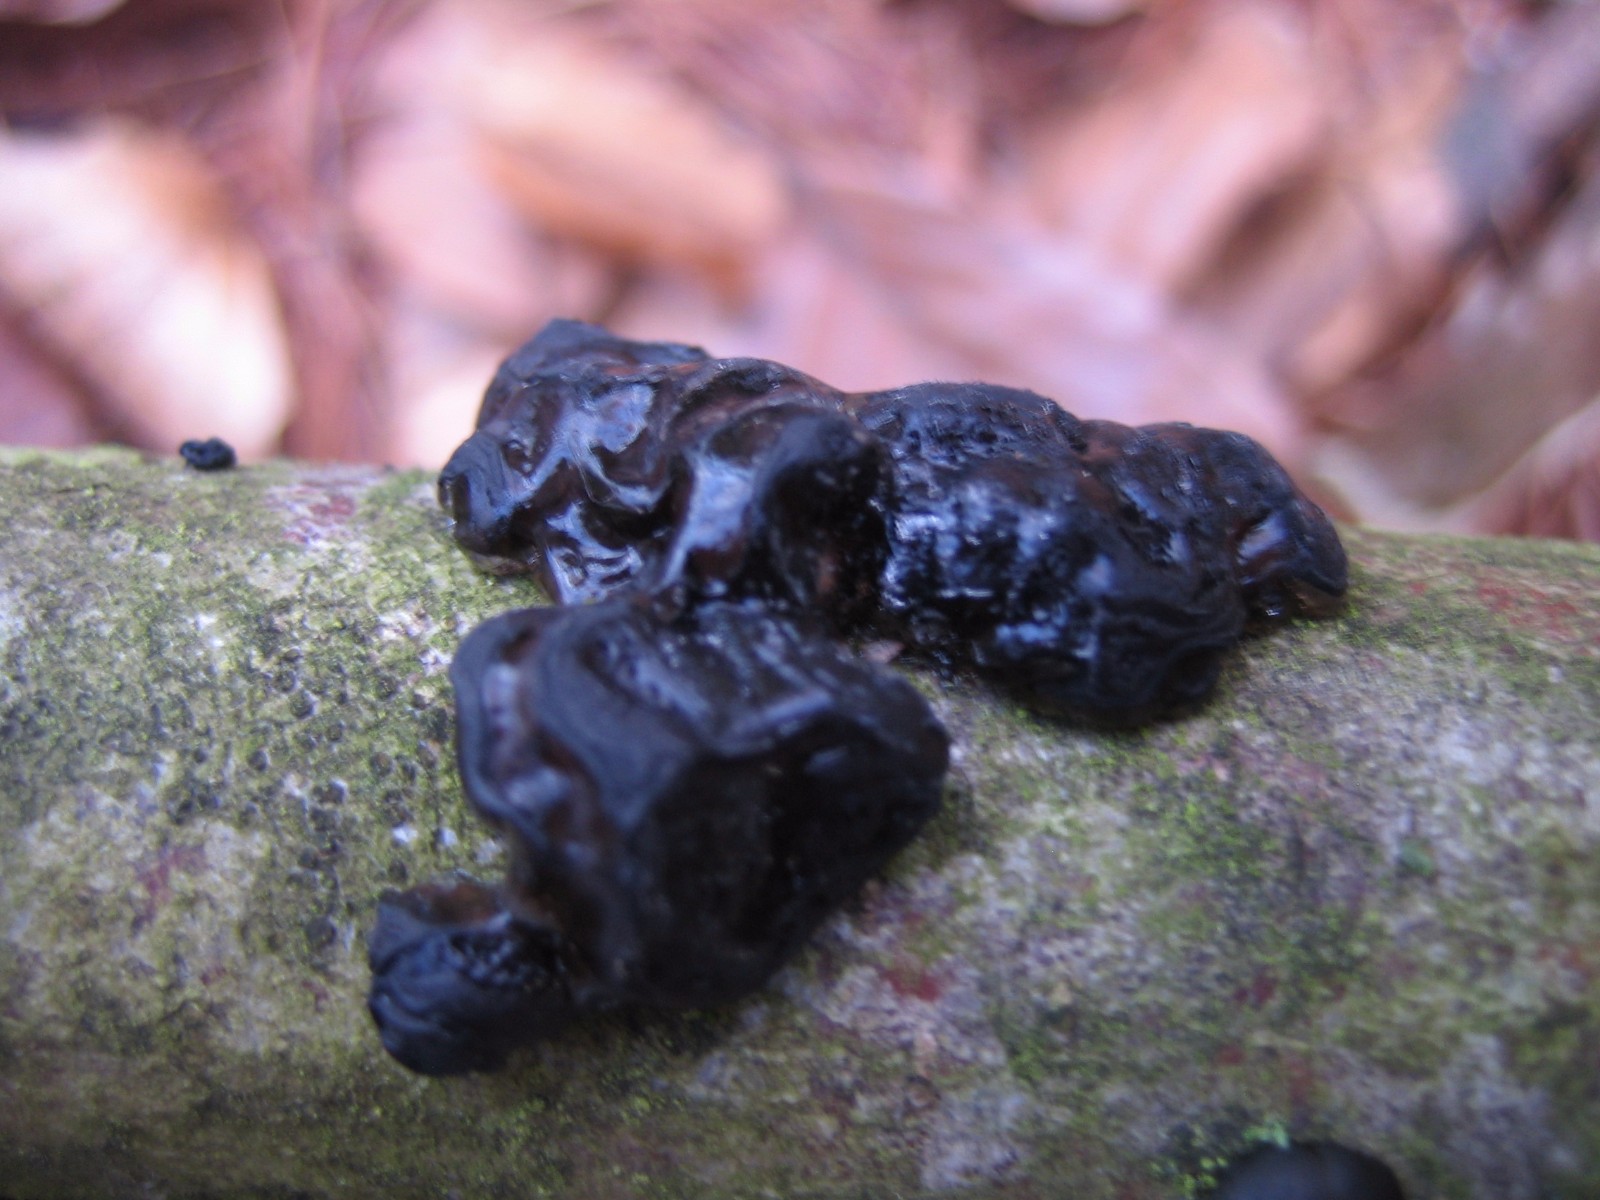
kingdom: Fungi
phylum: Basidiomycota
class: Agaricomycetes
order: Auriculariales
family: Auriculariaceae
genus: Exidia
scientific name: Exidia nigricans
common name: almindelig bævretop
